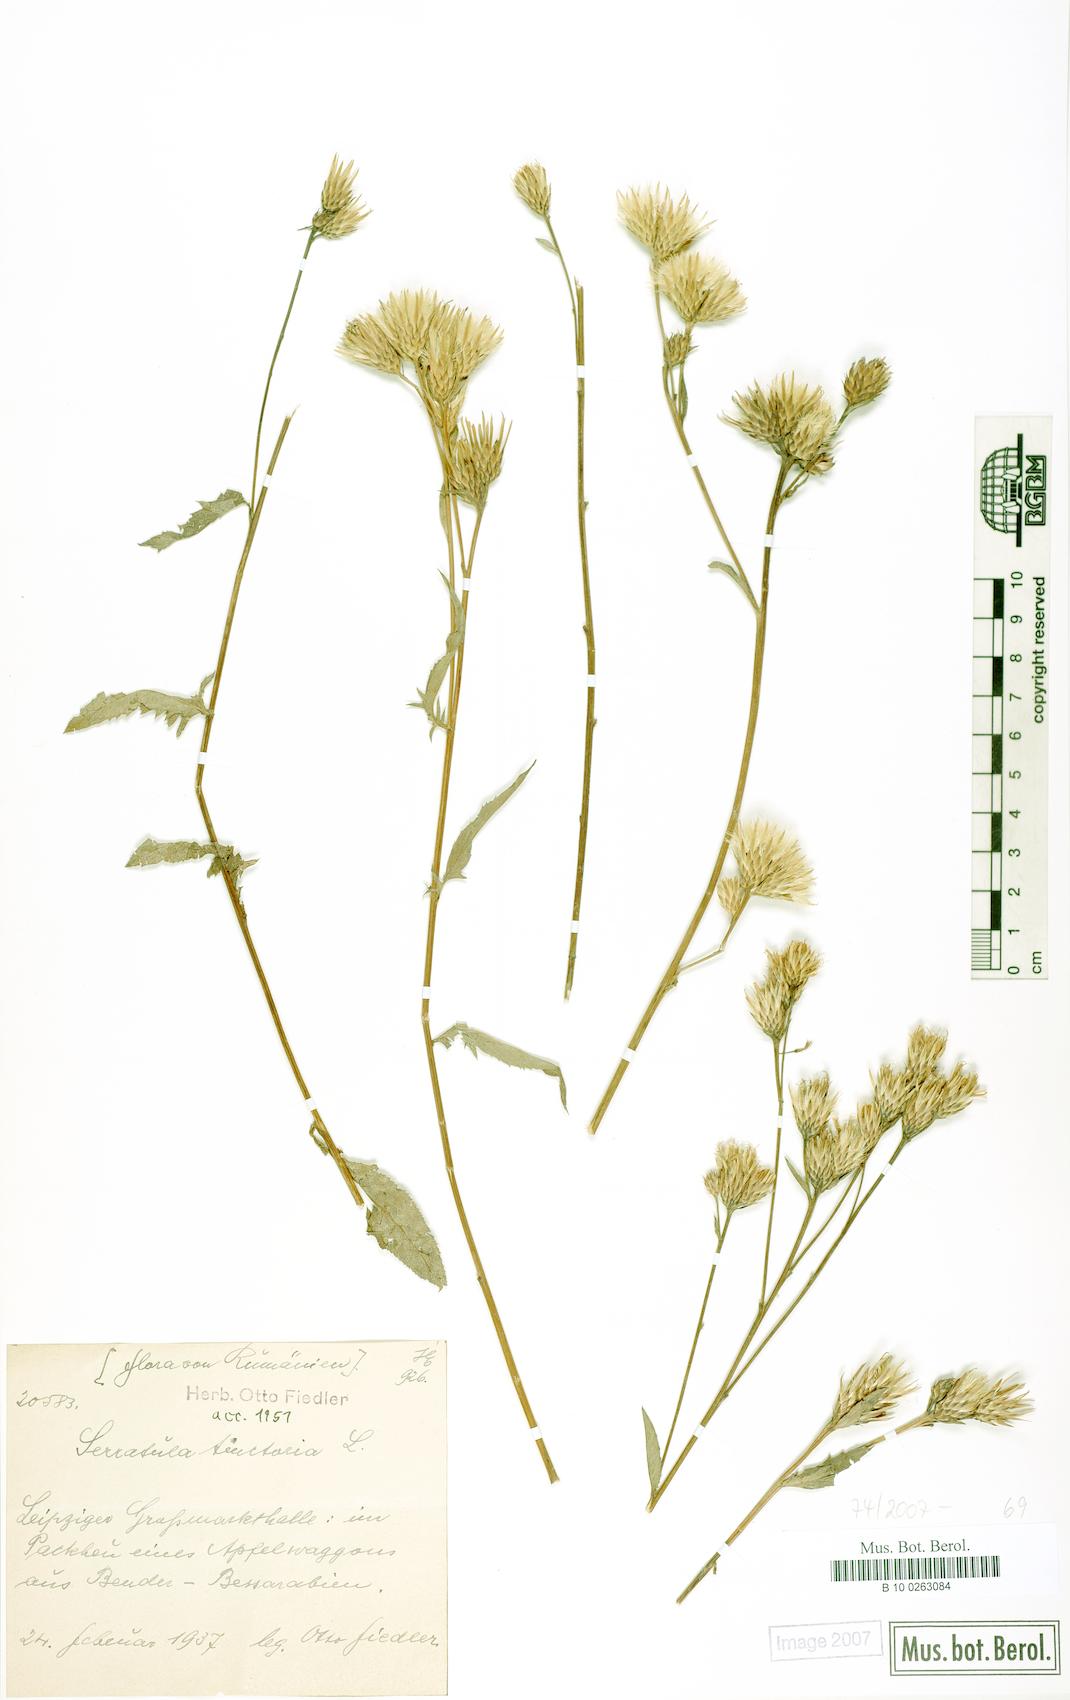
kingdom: Plantae
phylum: Tracheophyta
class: Magnoliopsida
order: Asterales
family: Asteraceae
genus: Serratula
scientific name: Serratula tinctoria
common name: Saw-wort
